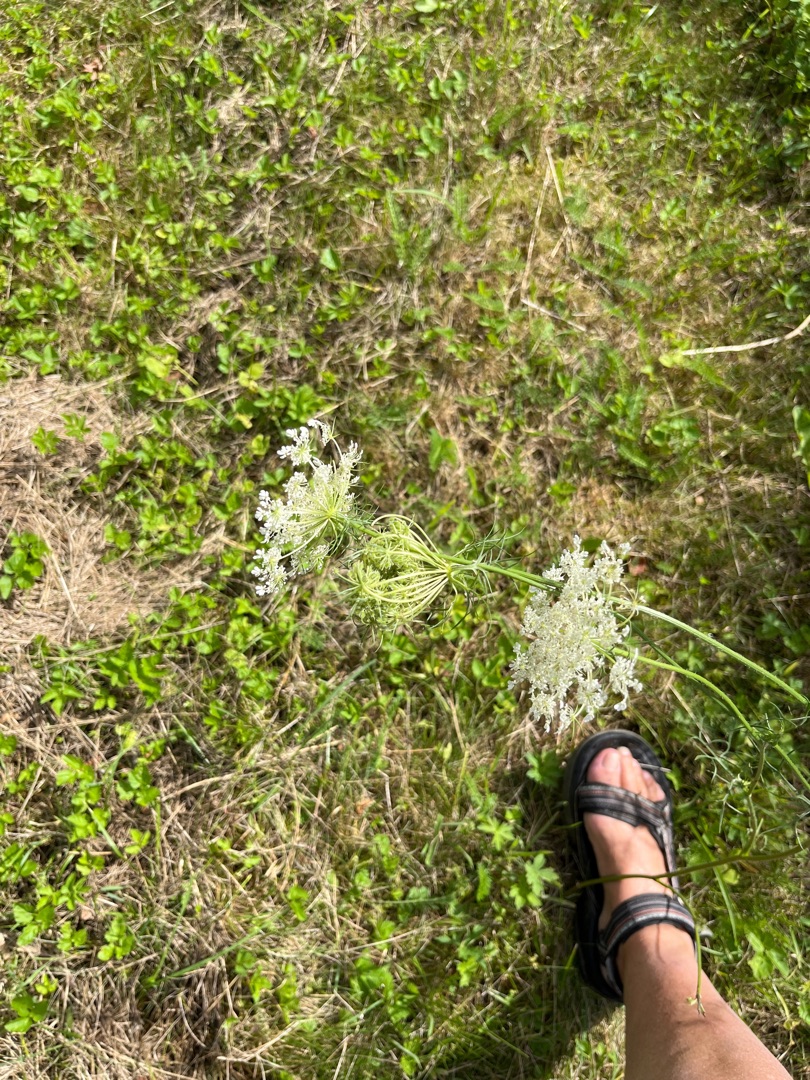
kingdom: Plantae
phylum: Tracheophyta
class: Magnoliopsida
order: Apiales
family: Apiaceae
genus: Daucus
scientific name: Daucus carota
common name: Gulerod
